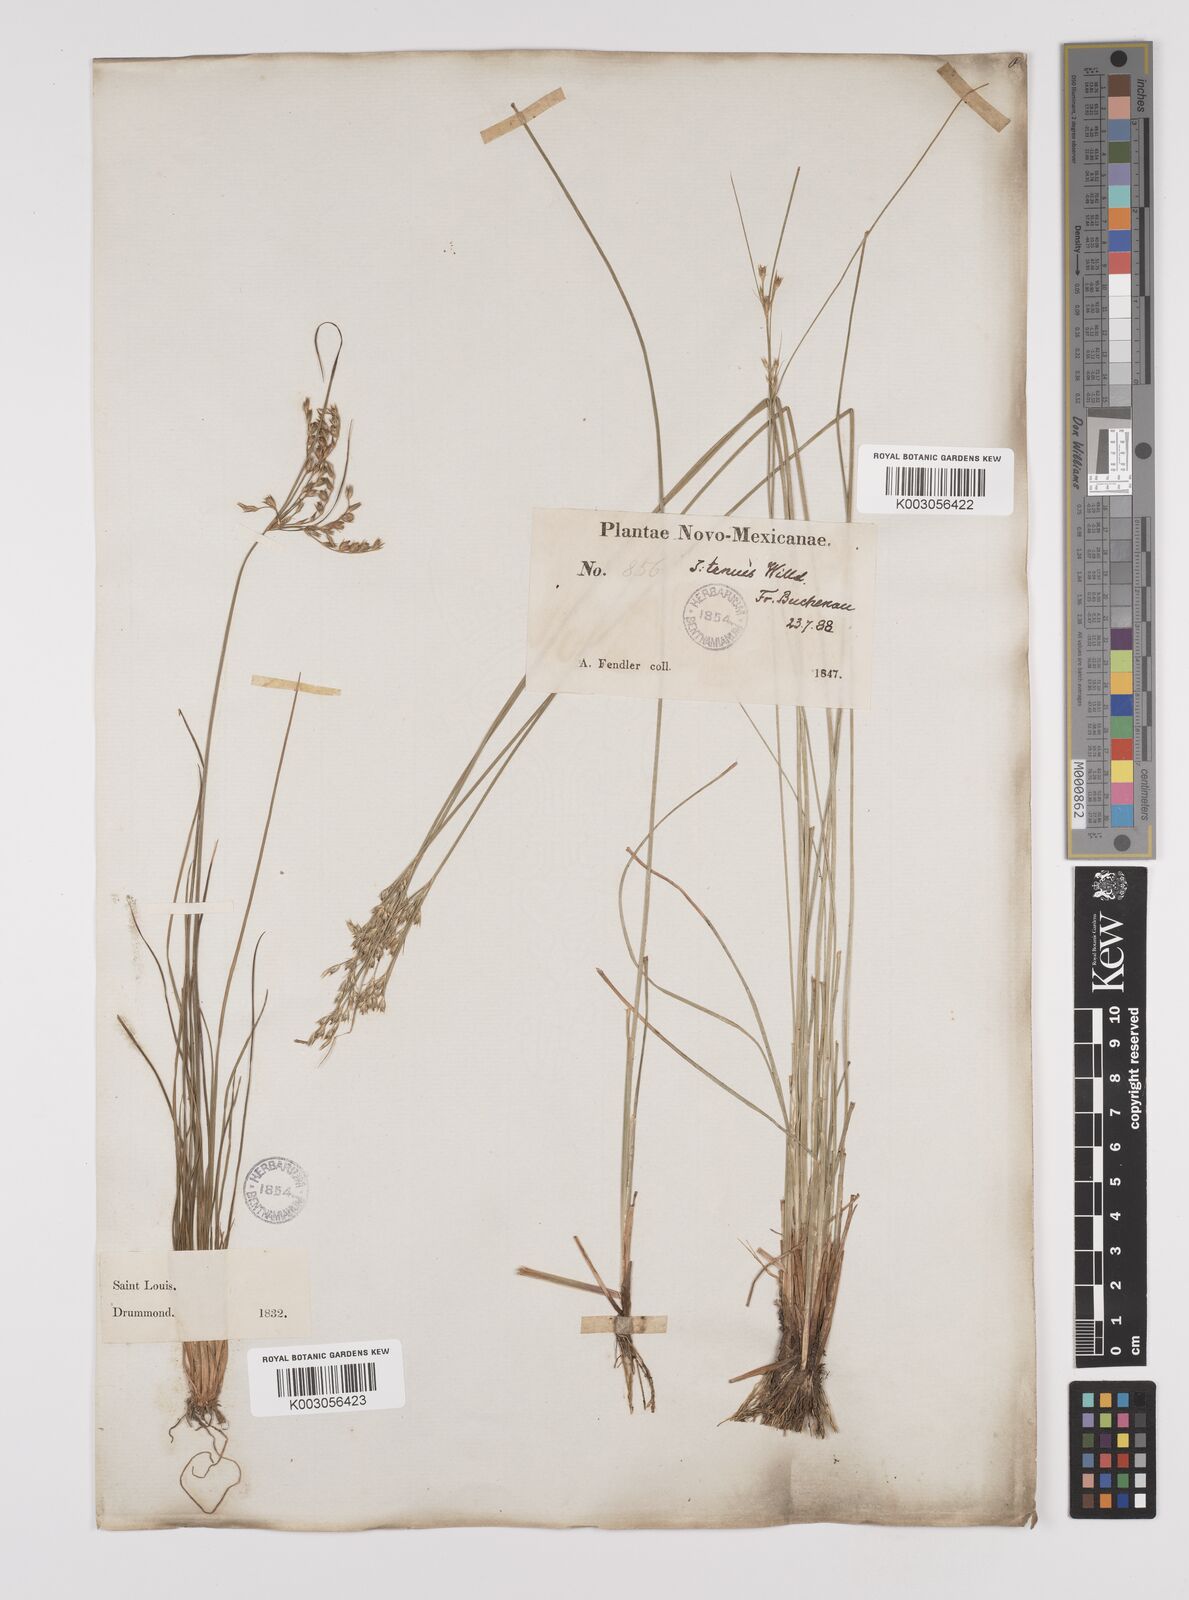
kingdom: Plantae
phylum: Tracheophyta
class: Liliopsida
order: Poales
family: Juncaceae
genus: Juncus
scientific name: Juncus tenuis
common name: Slender rush
